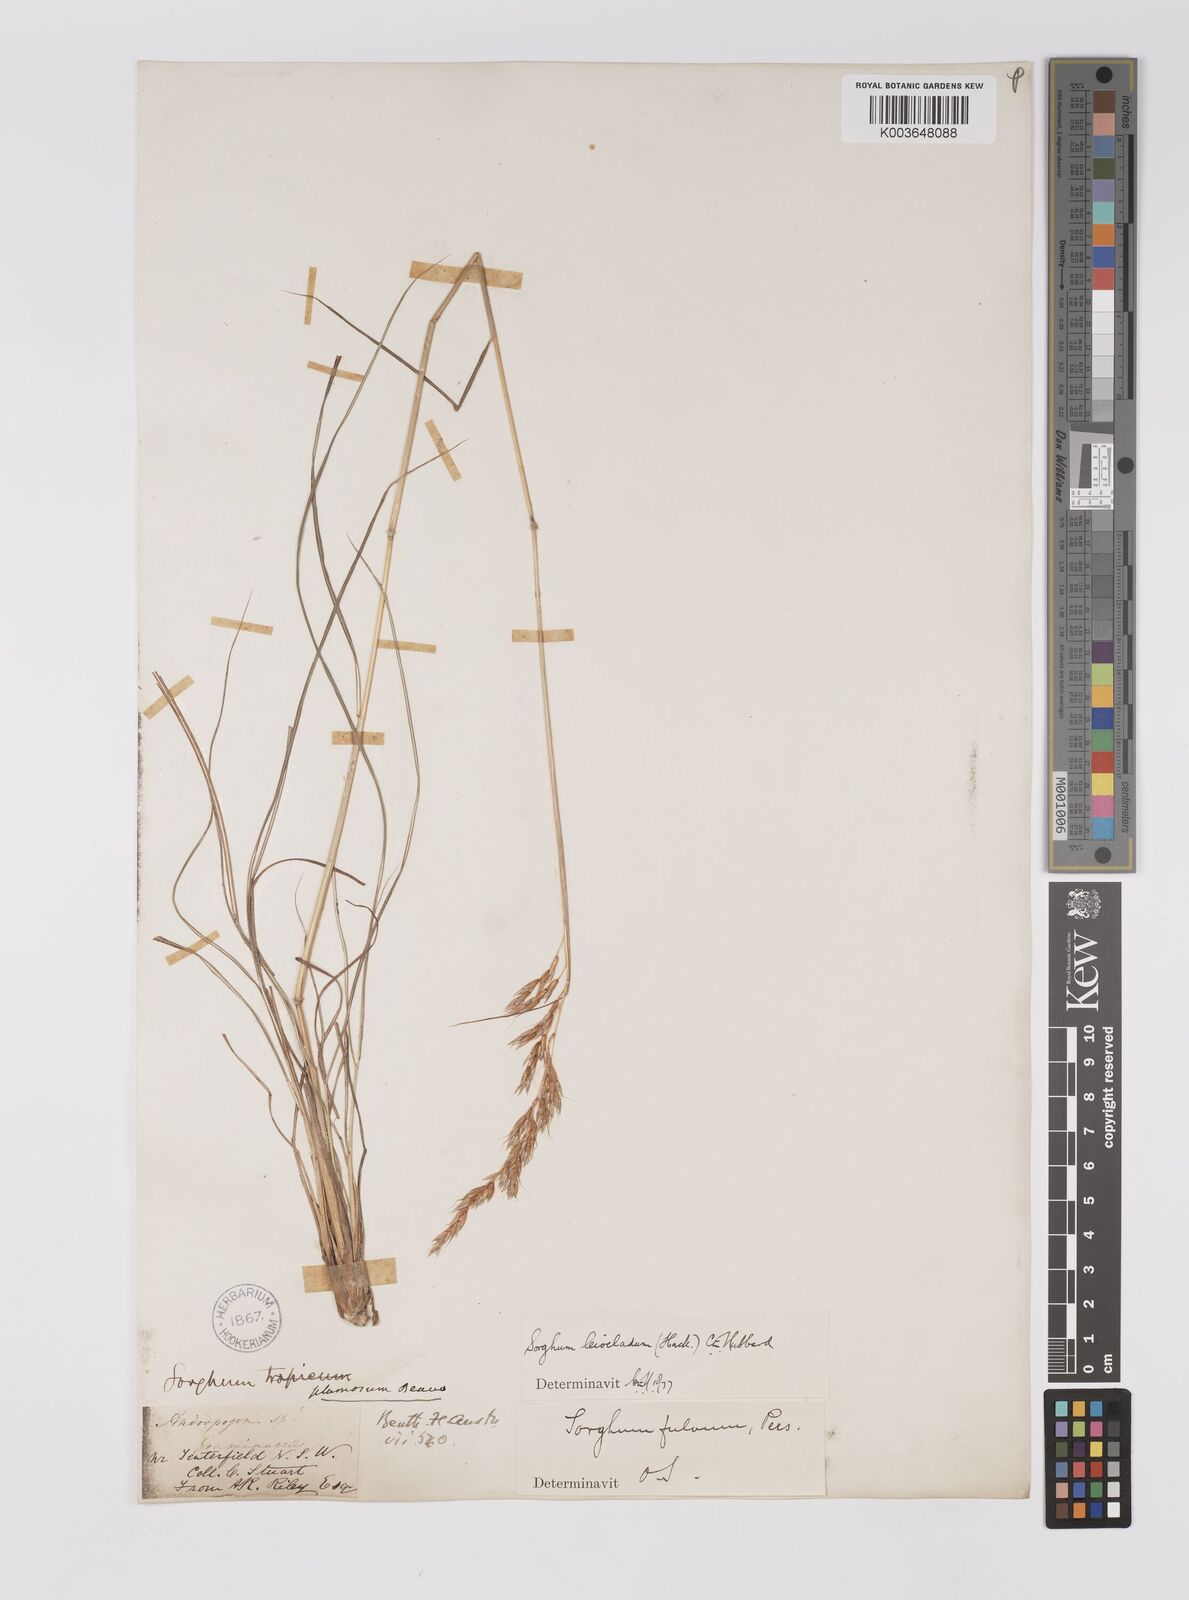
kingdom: Plantae
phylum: Tracheophyta
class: Liliopsida
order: Poales
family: Poaceae
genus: Sarga
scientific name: Sarga leioclada
